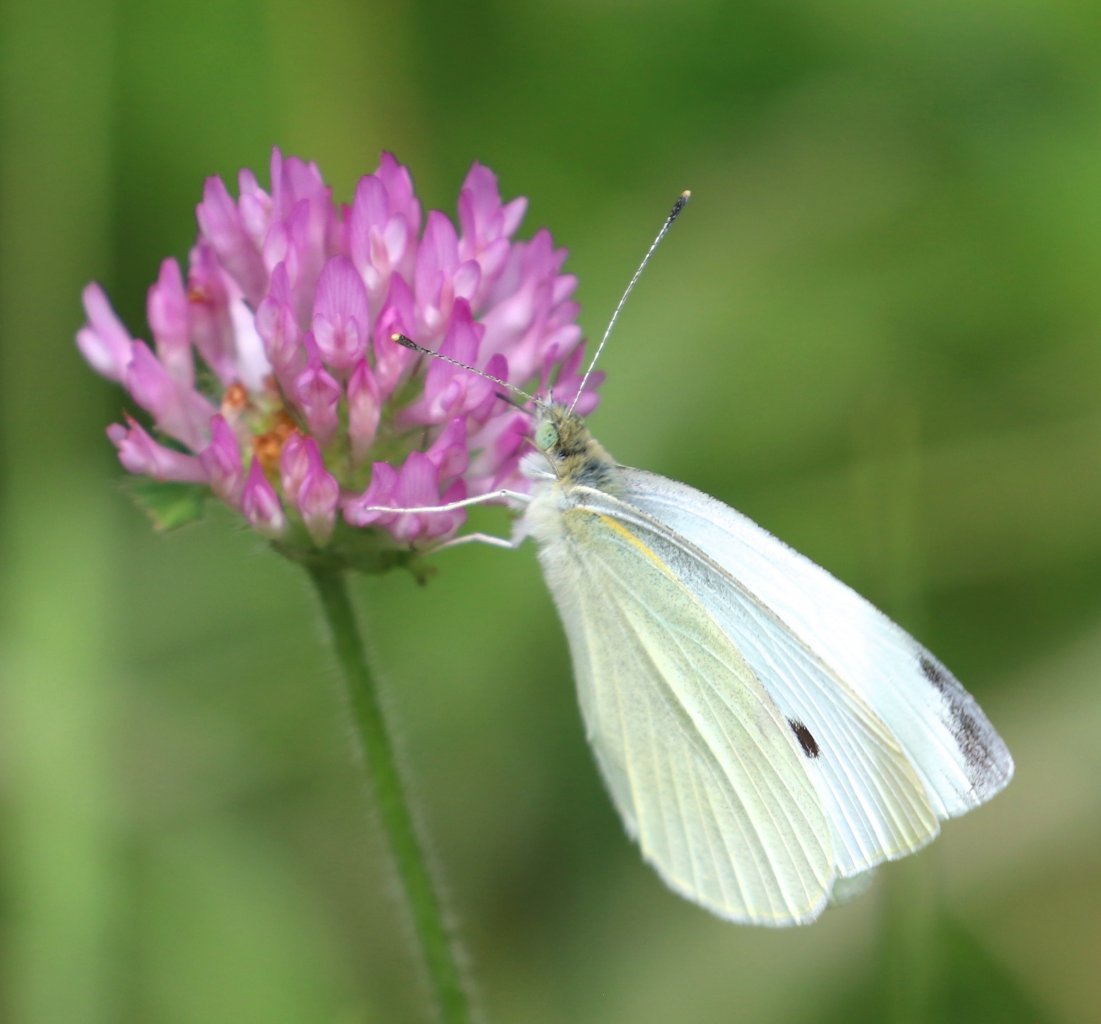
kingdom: Animalia
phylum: Arthropoda
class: Insecta
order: Lepidoptera
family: Pieridae
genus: Pieris
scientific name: Pieris rapae
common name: Cabbage White
